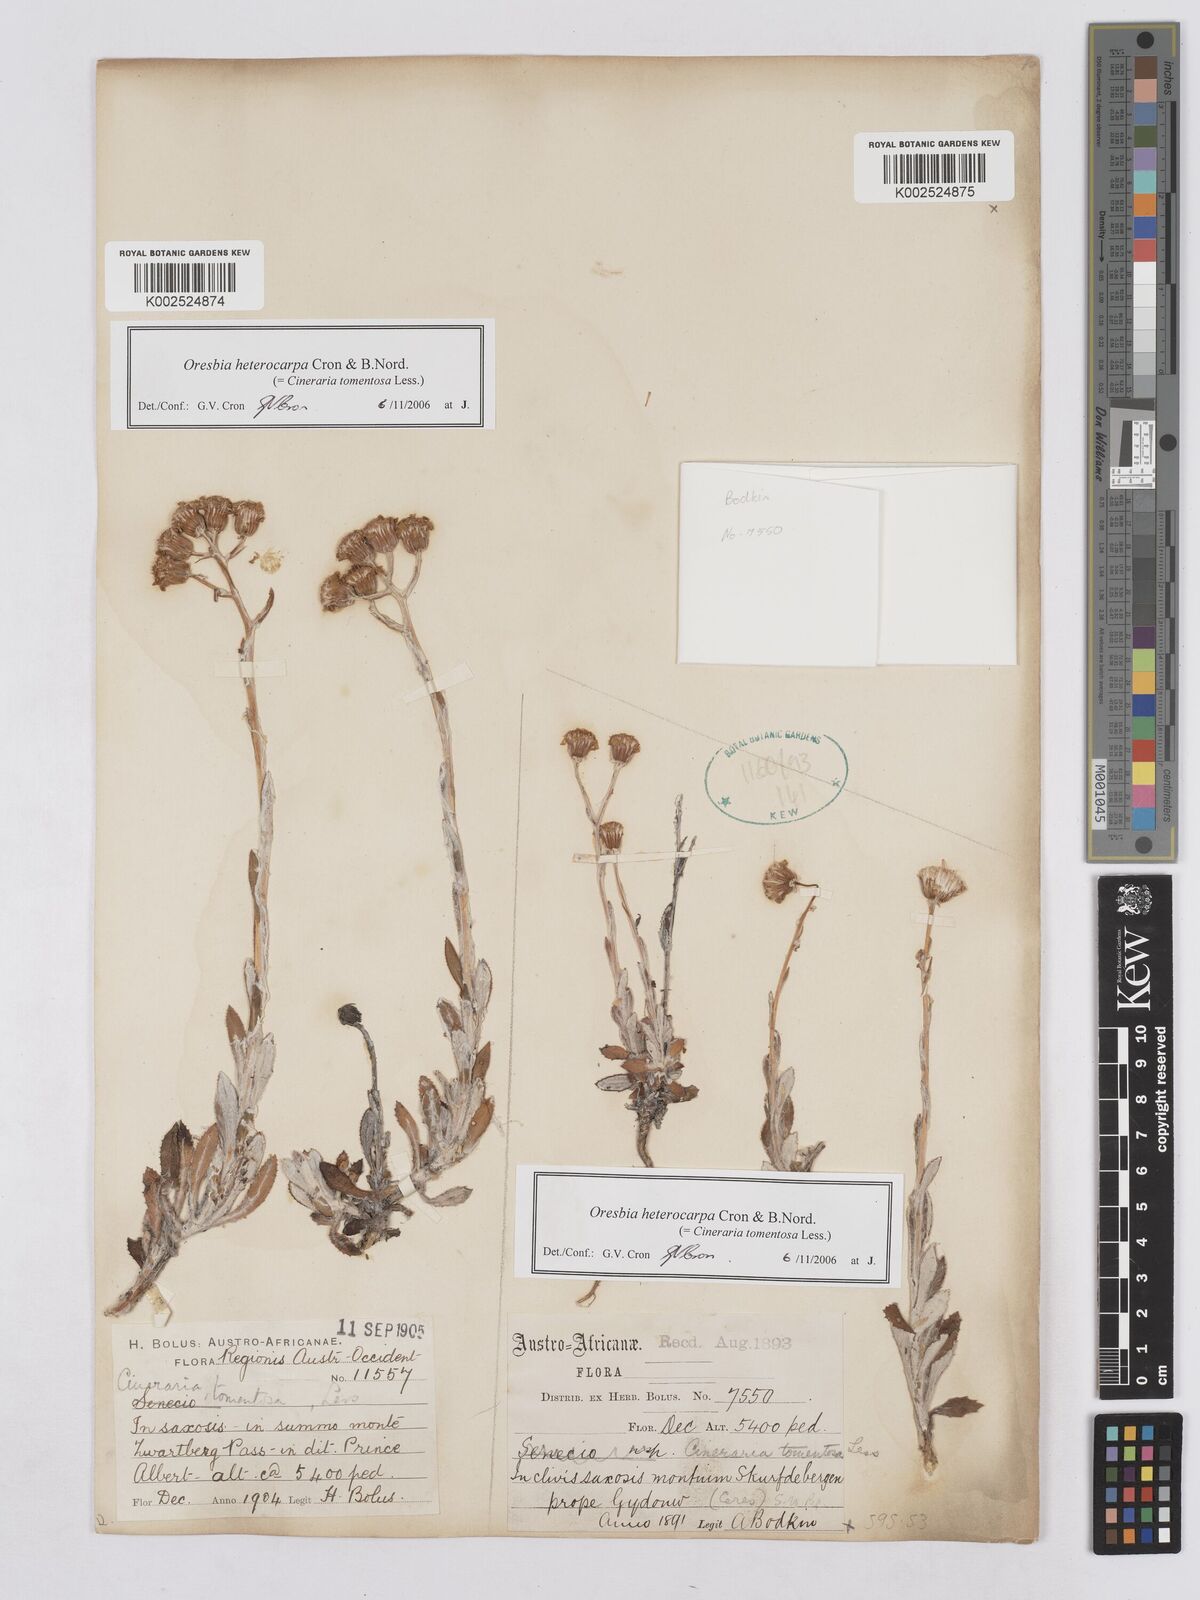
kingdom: Plantae
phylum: Tracheophyta
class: Magnoliopsida
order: Asterales
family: Asteraceae
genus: Oresbia
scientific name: Oresbia heterocarpa
